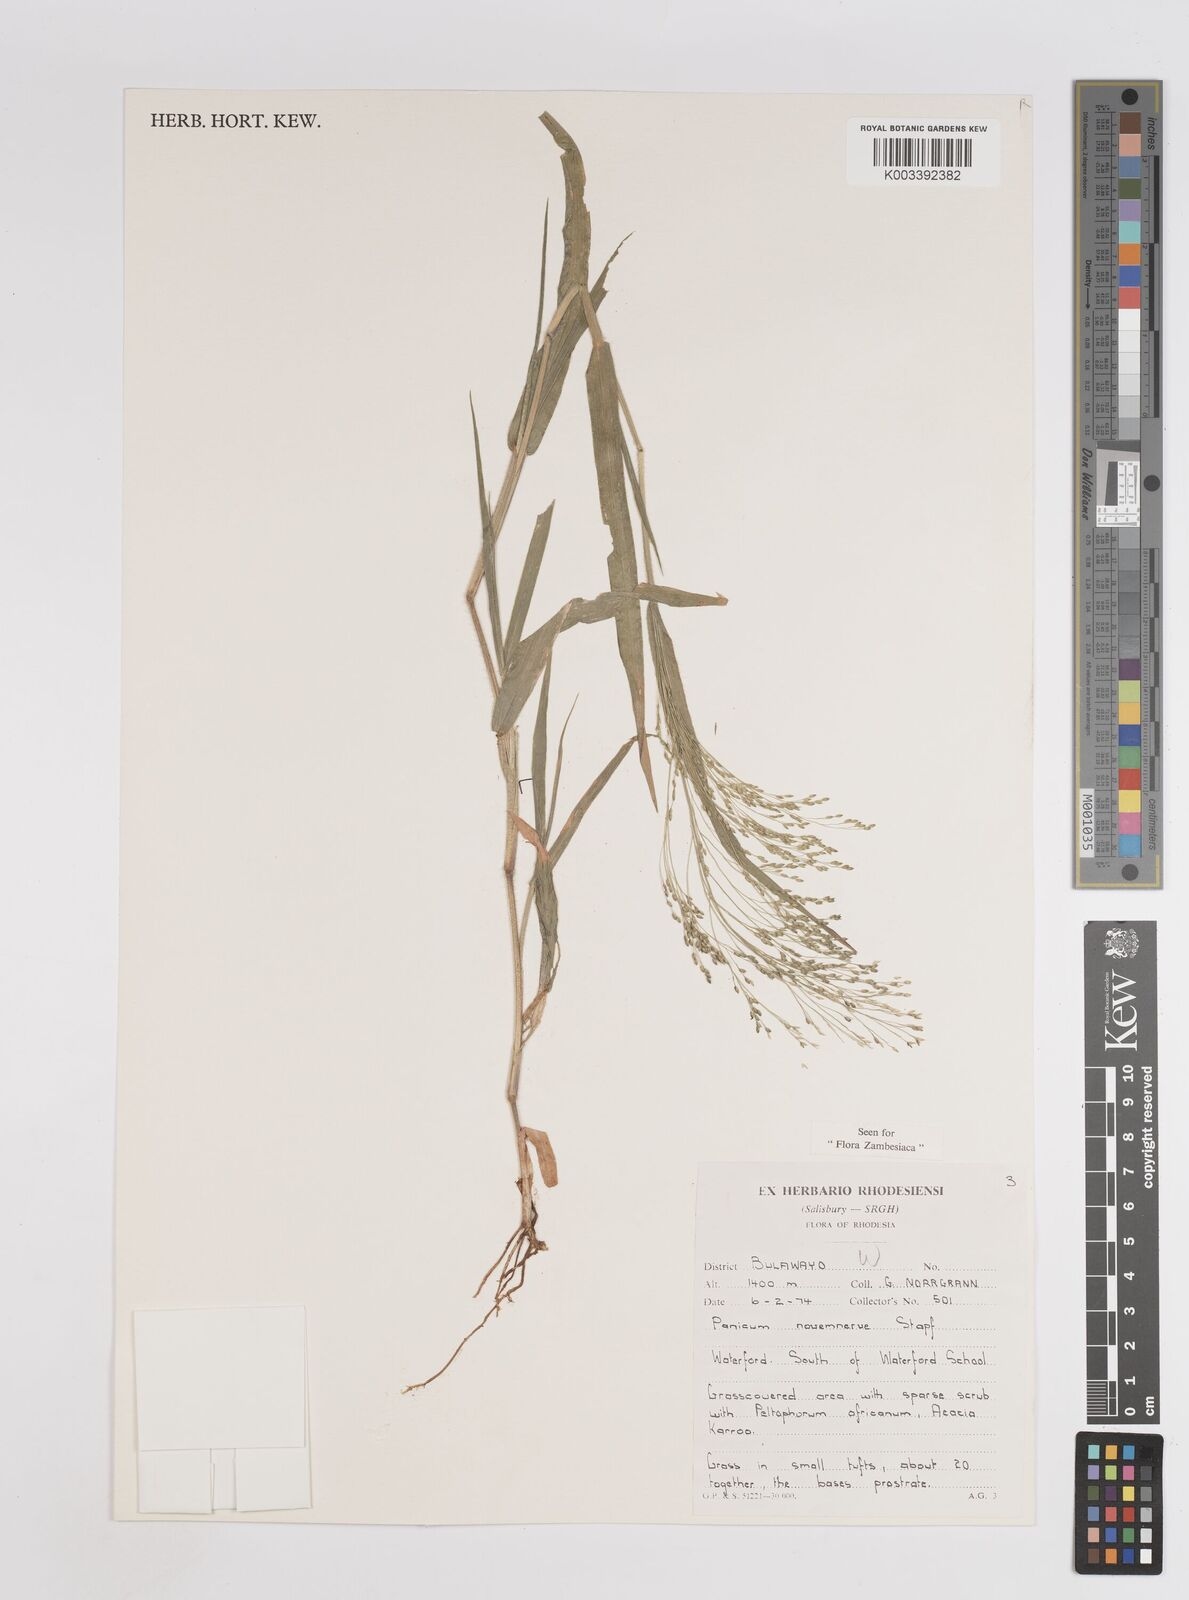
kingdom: Plantae
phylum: Tracheophyta
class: Liliopsida
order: Poales
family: Poaceae
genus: Panicum
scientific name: Panicum novemnerve
